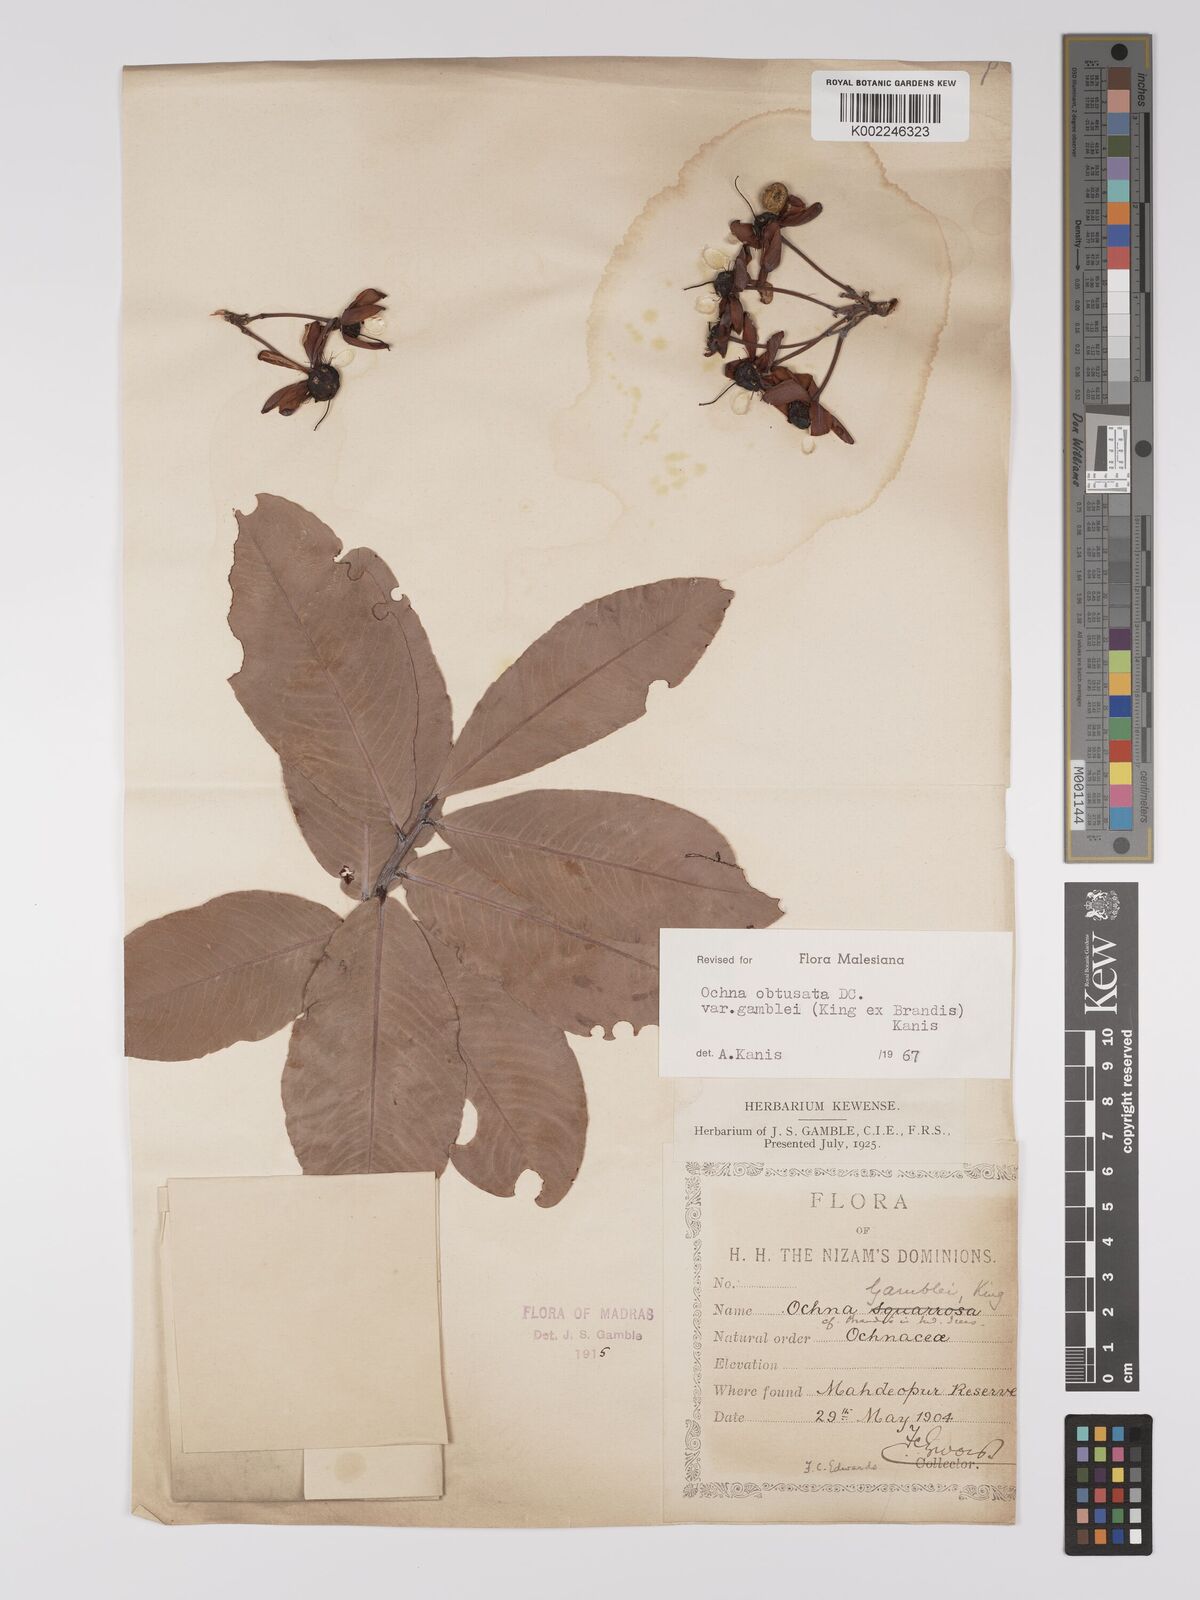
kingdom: Plantae
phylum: Tracheophyta
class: Magnoliopsida
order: Malpighiales
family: Ochnaceae
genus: Ochna
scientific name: Ochna obtusata
